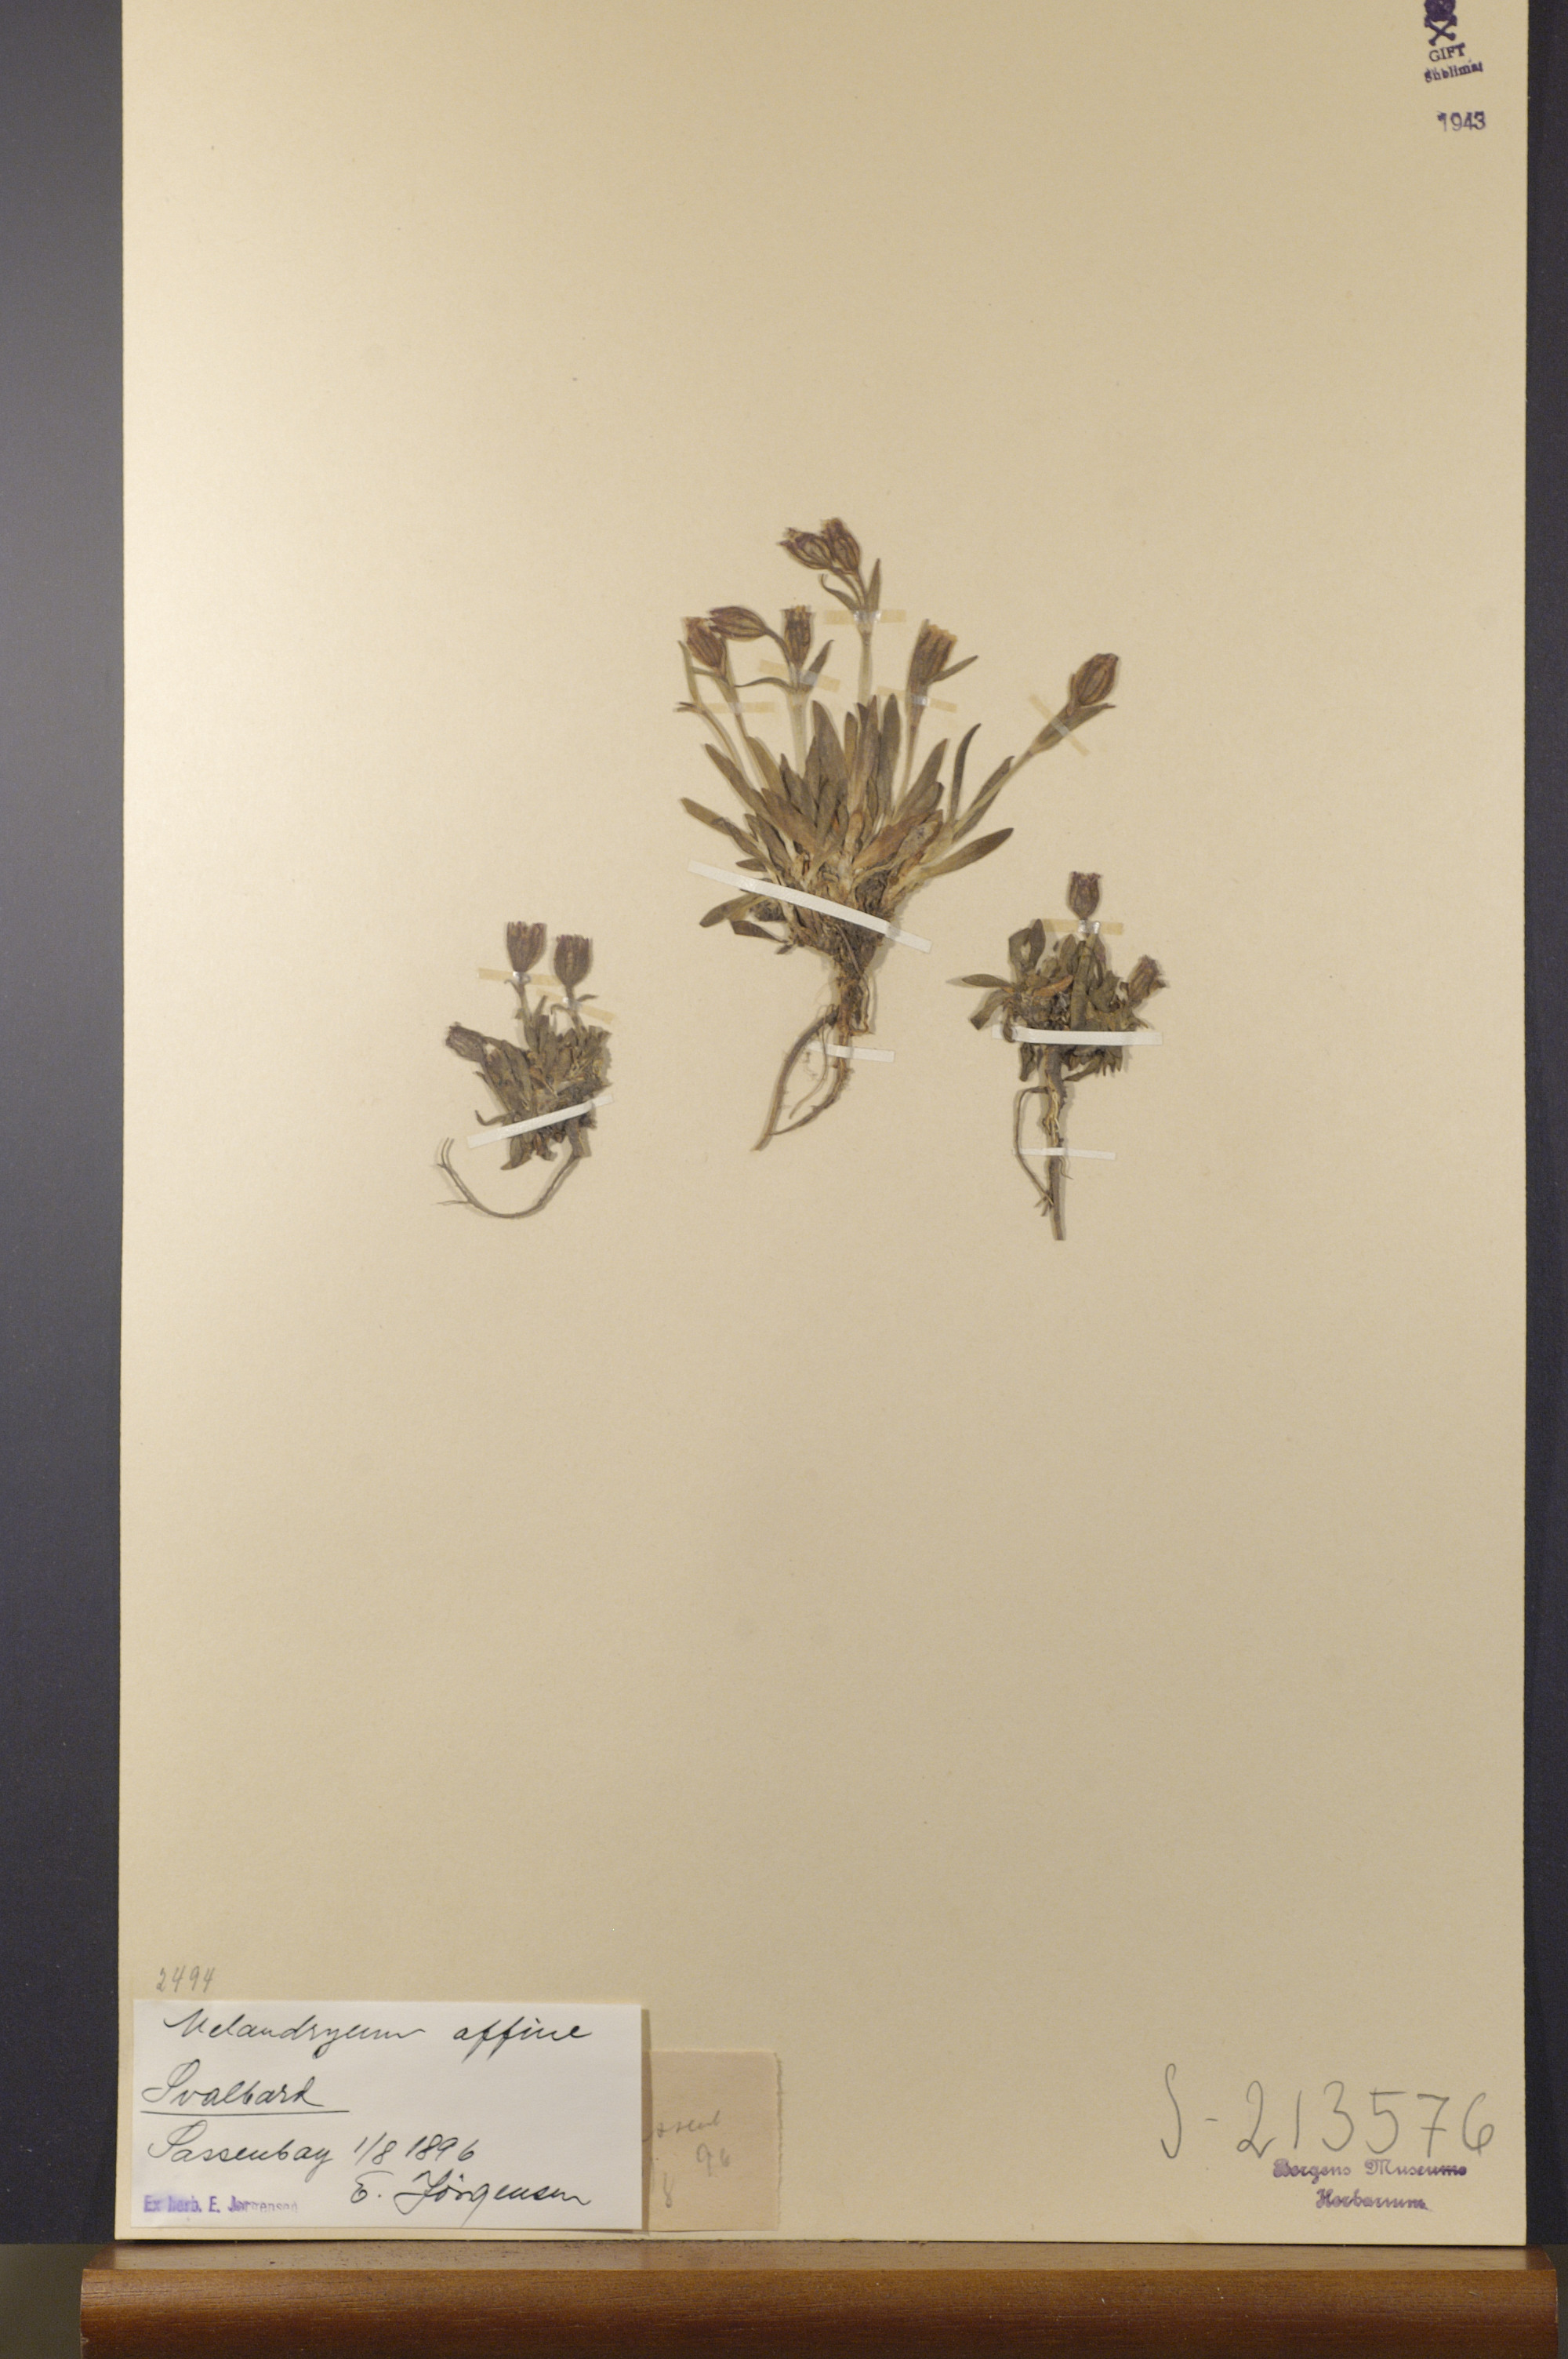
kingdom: Plantae
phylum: Tracheophyta
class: Magnoliopsida
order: Caryophyllales
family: Caryophyllaceae
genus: Silene
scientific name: Silene involucrata
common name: Greater arctic campion
